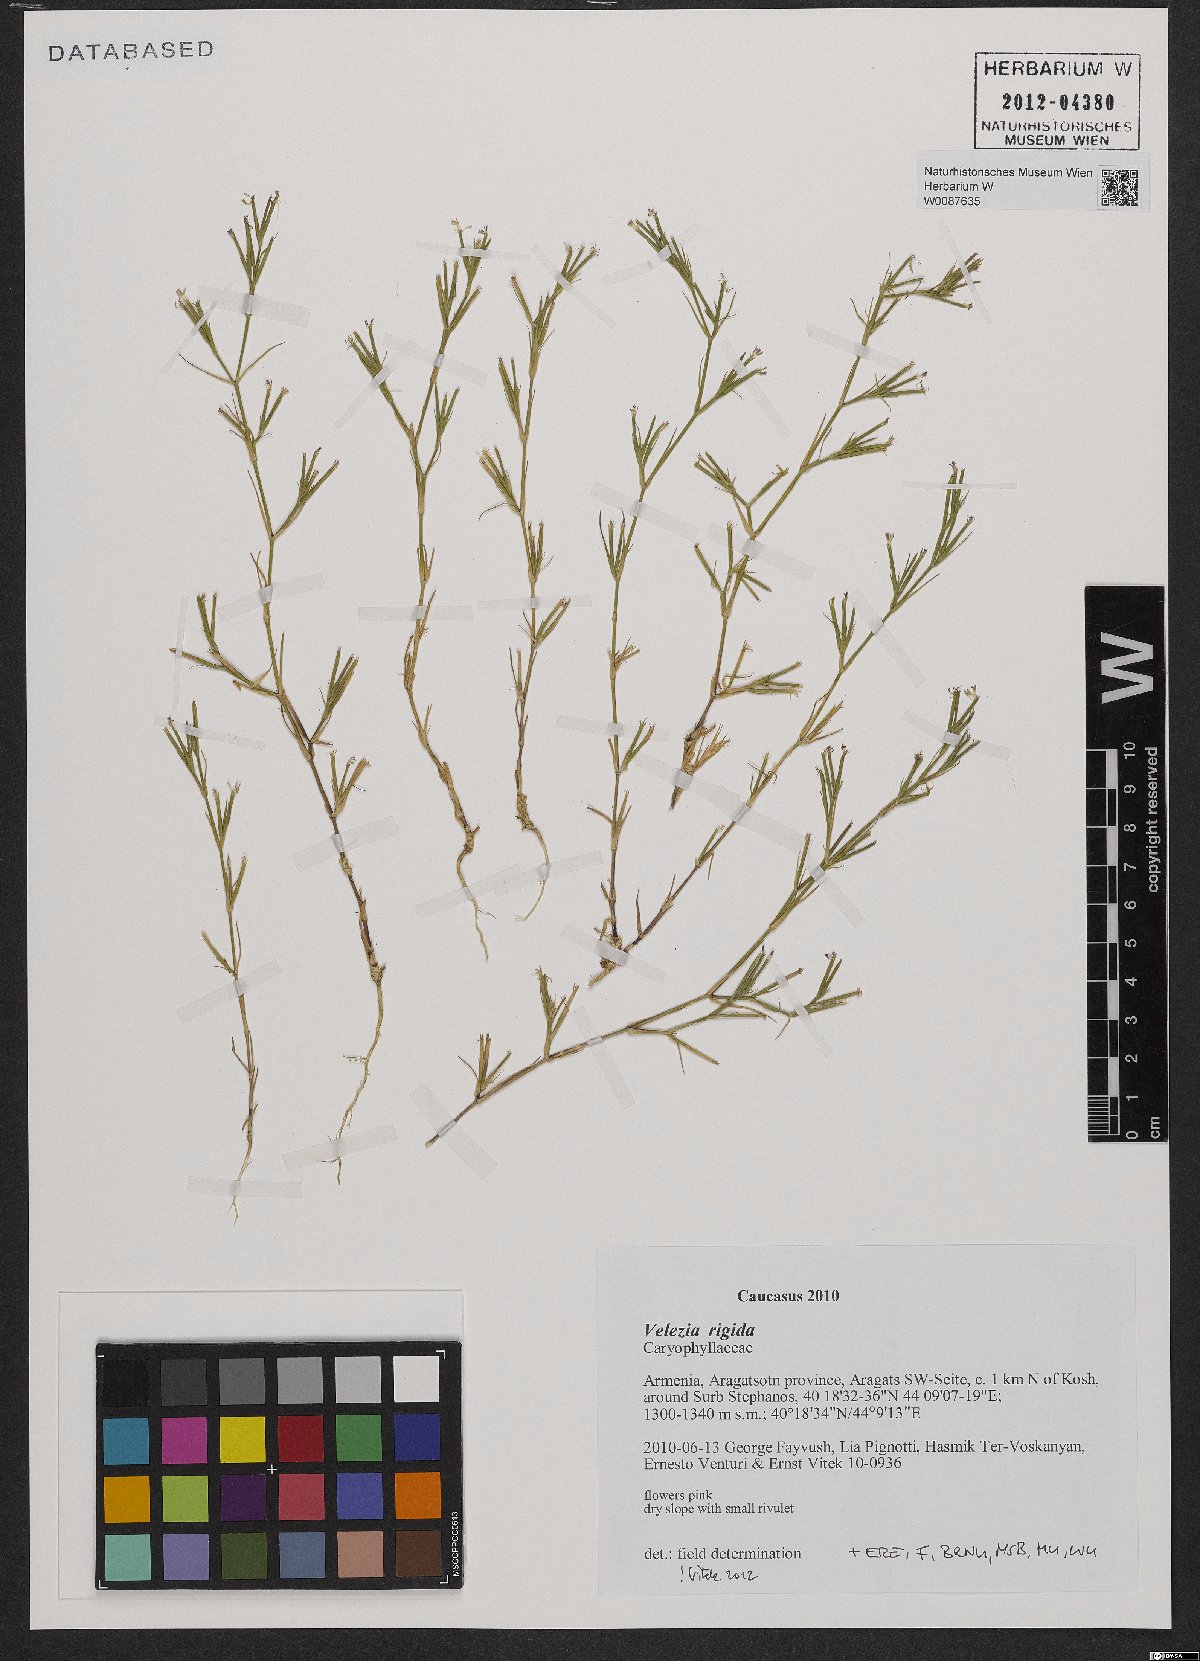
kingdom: Plantae
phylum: Tracheophyta
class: Magnoliopsida
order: Caryophyllales
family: Caryophyllaceae
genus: Dianthus
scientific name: Dianthus nudiflorus
